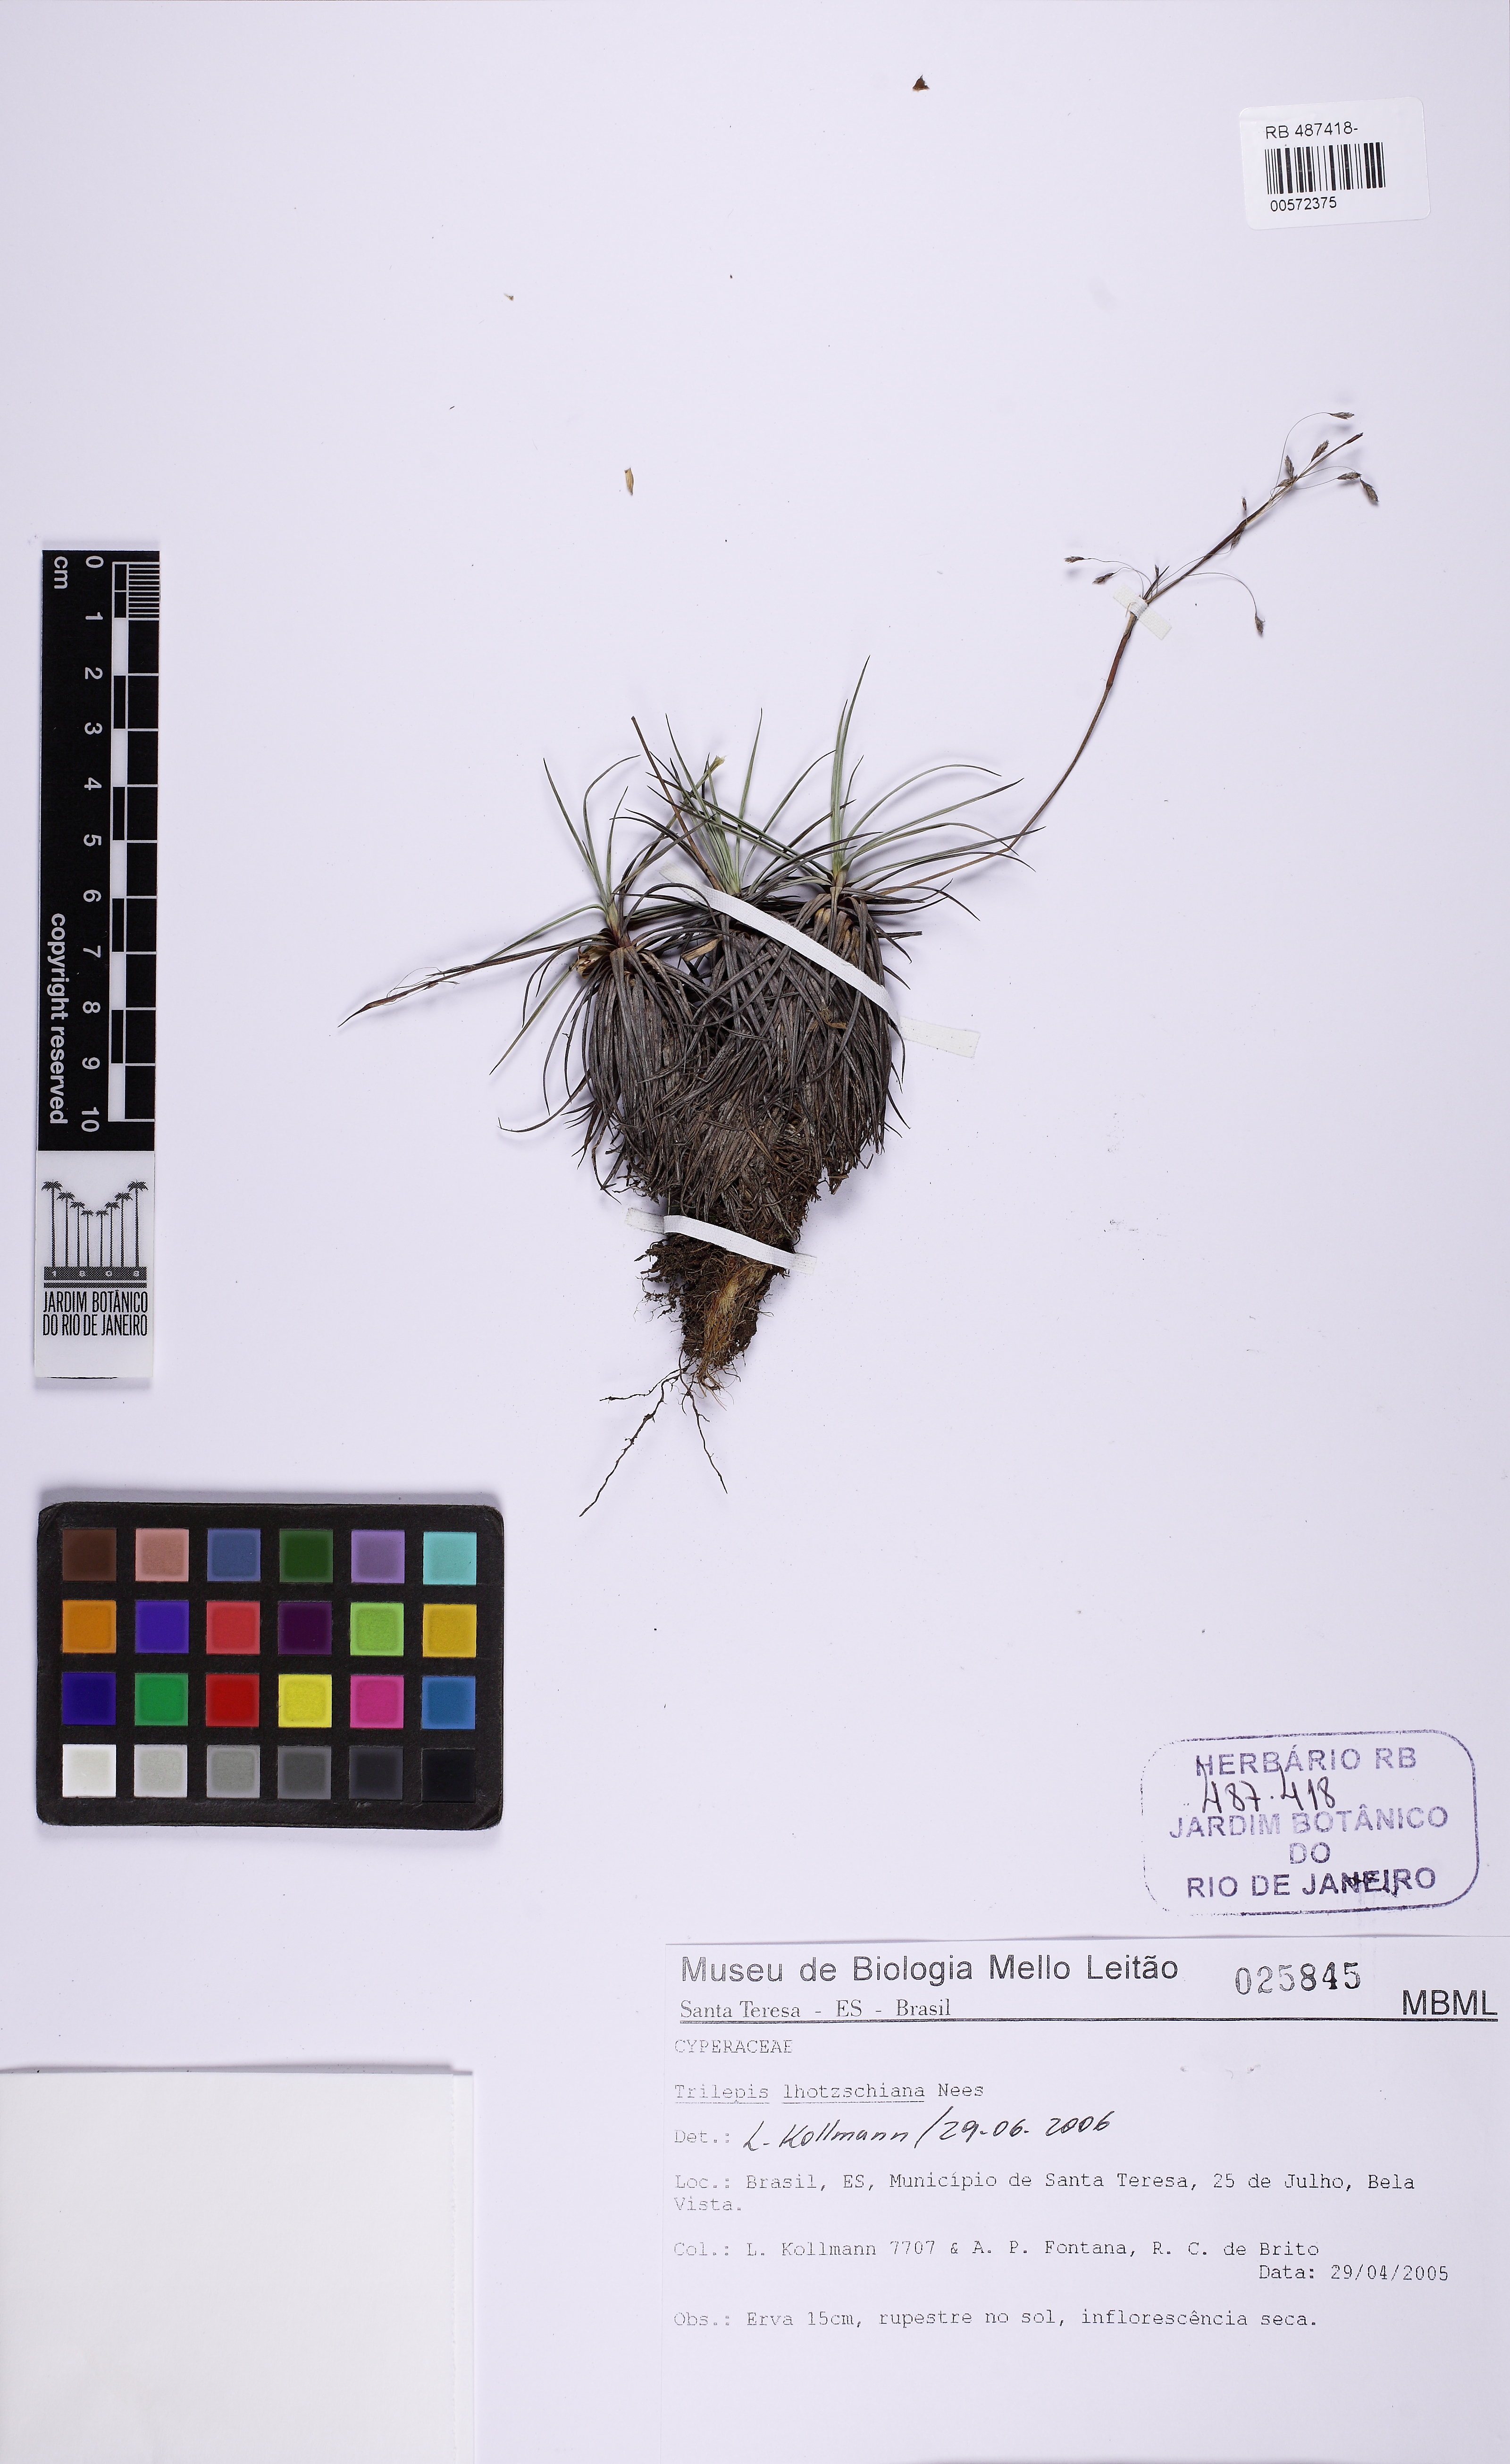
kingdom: Plantae
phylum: Tracheophyta
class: Liliopsida
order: Poales
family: Cyperaceae
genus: Trilepis
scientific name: Trilepis lhotzkiana
